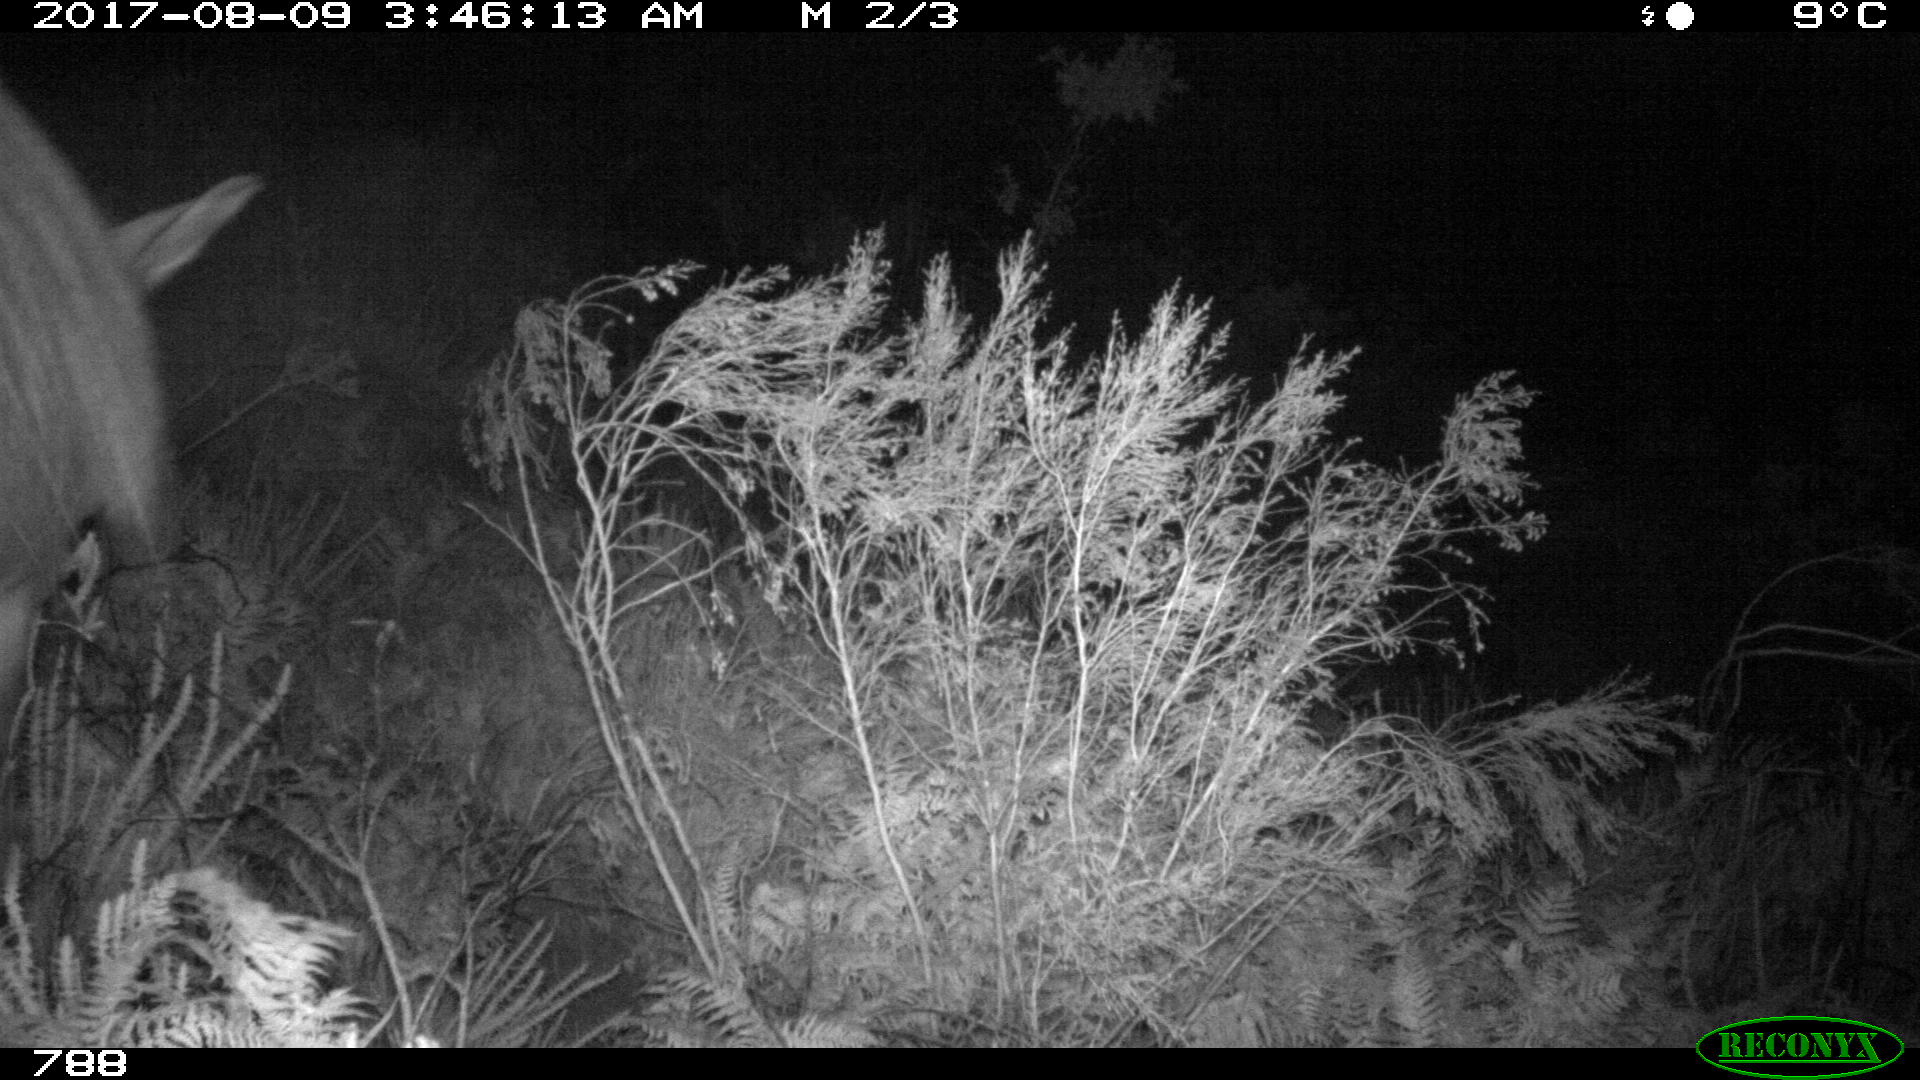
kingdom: Animalia
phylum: Chordata
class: Mammalia
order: Perissodactyla
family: Equidae
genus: Equus
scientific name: Equus caballus
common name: Horse
